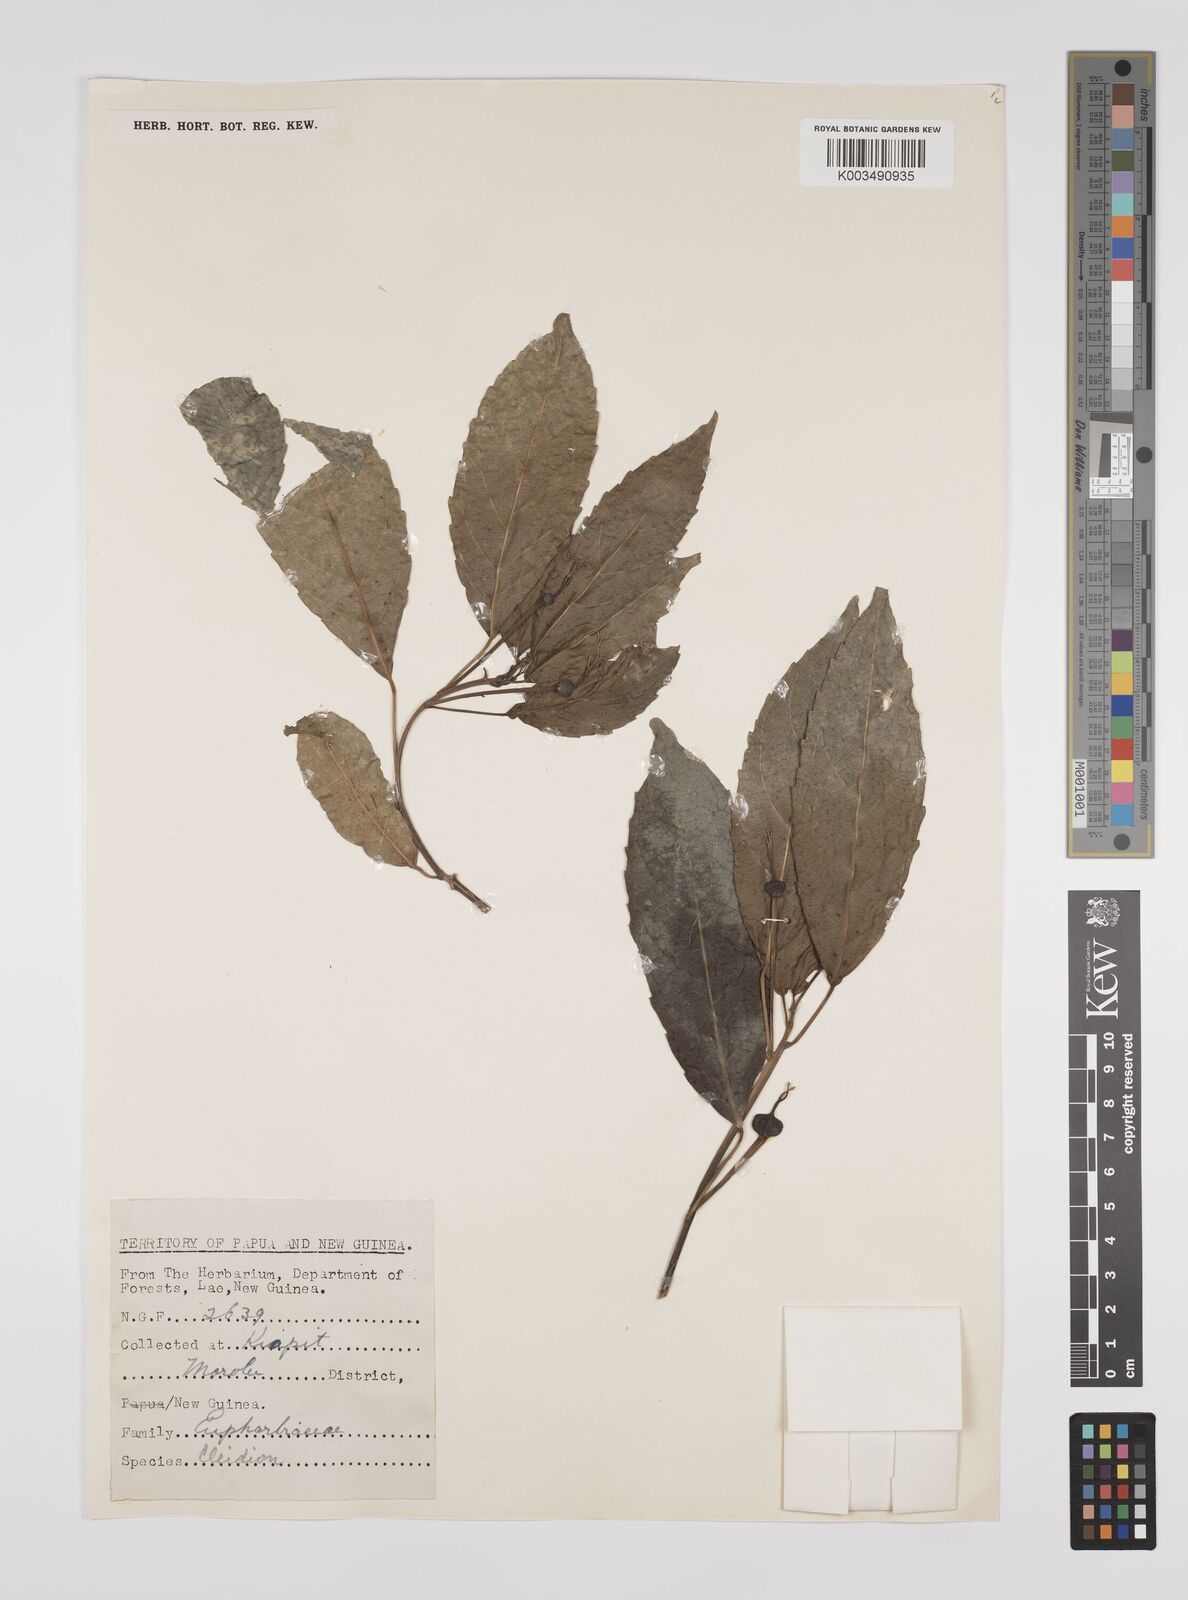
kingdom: Plantae
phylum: Tracheophyta
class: Magnoliopsida
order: Malpighiales
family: Euphorbiaceae
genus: Cleidion
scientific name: Cleidion javanicum
